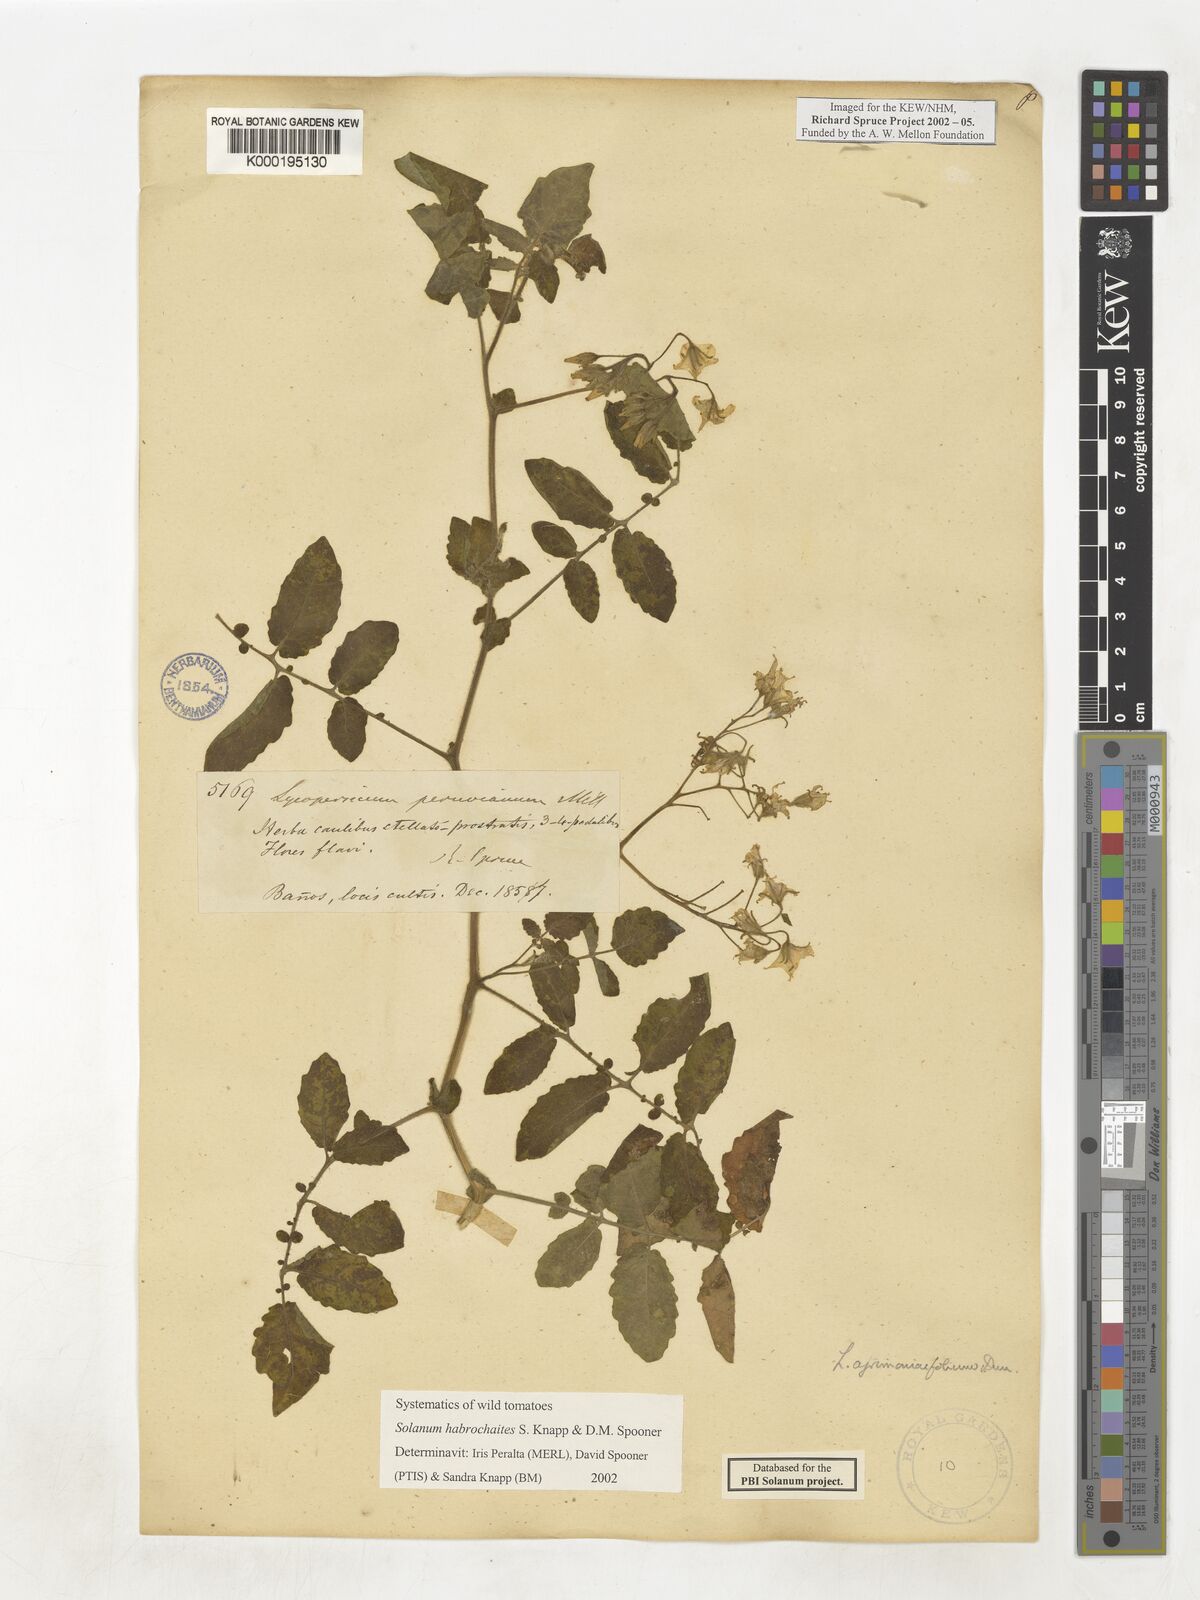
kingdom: Plantae
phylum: Tracheophyta
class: Magnoliopsida
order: Solanales
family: Solanaceae
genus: Solanum
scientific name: Solanum habrochaites
